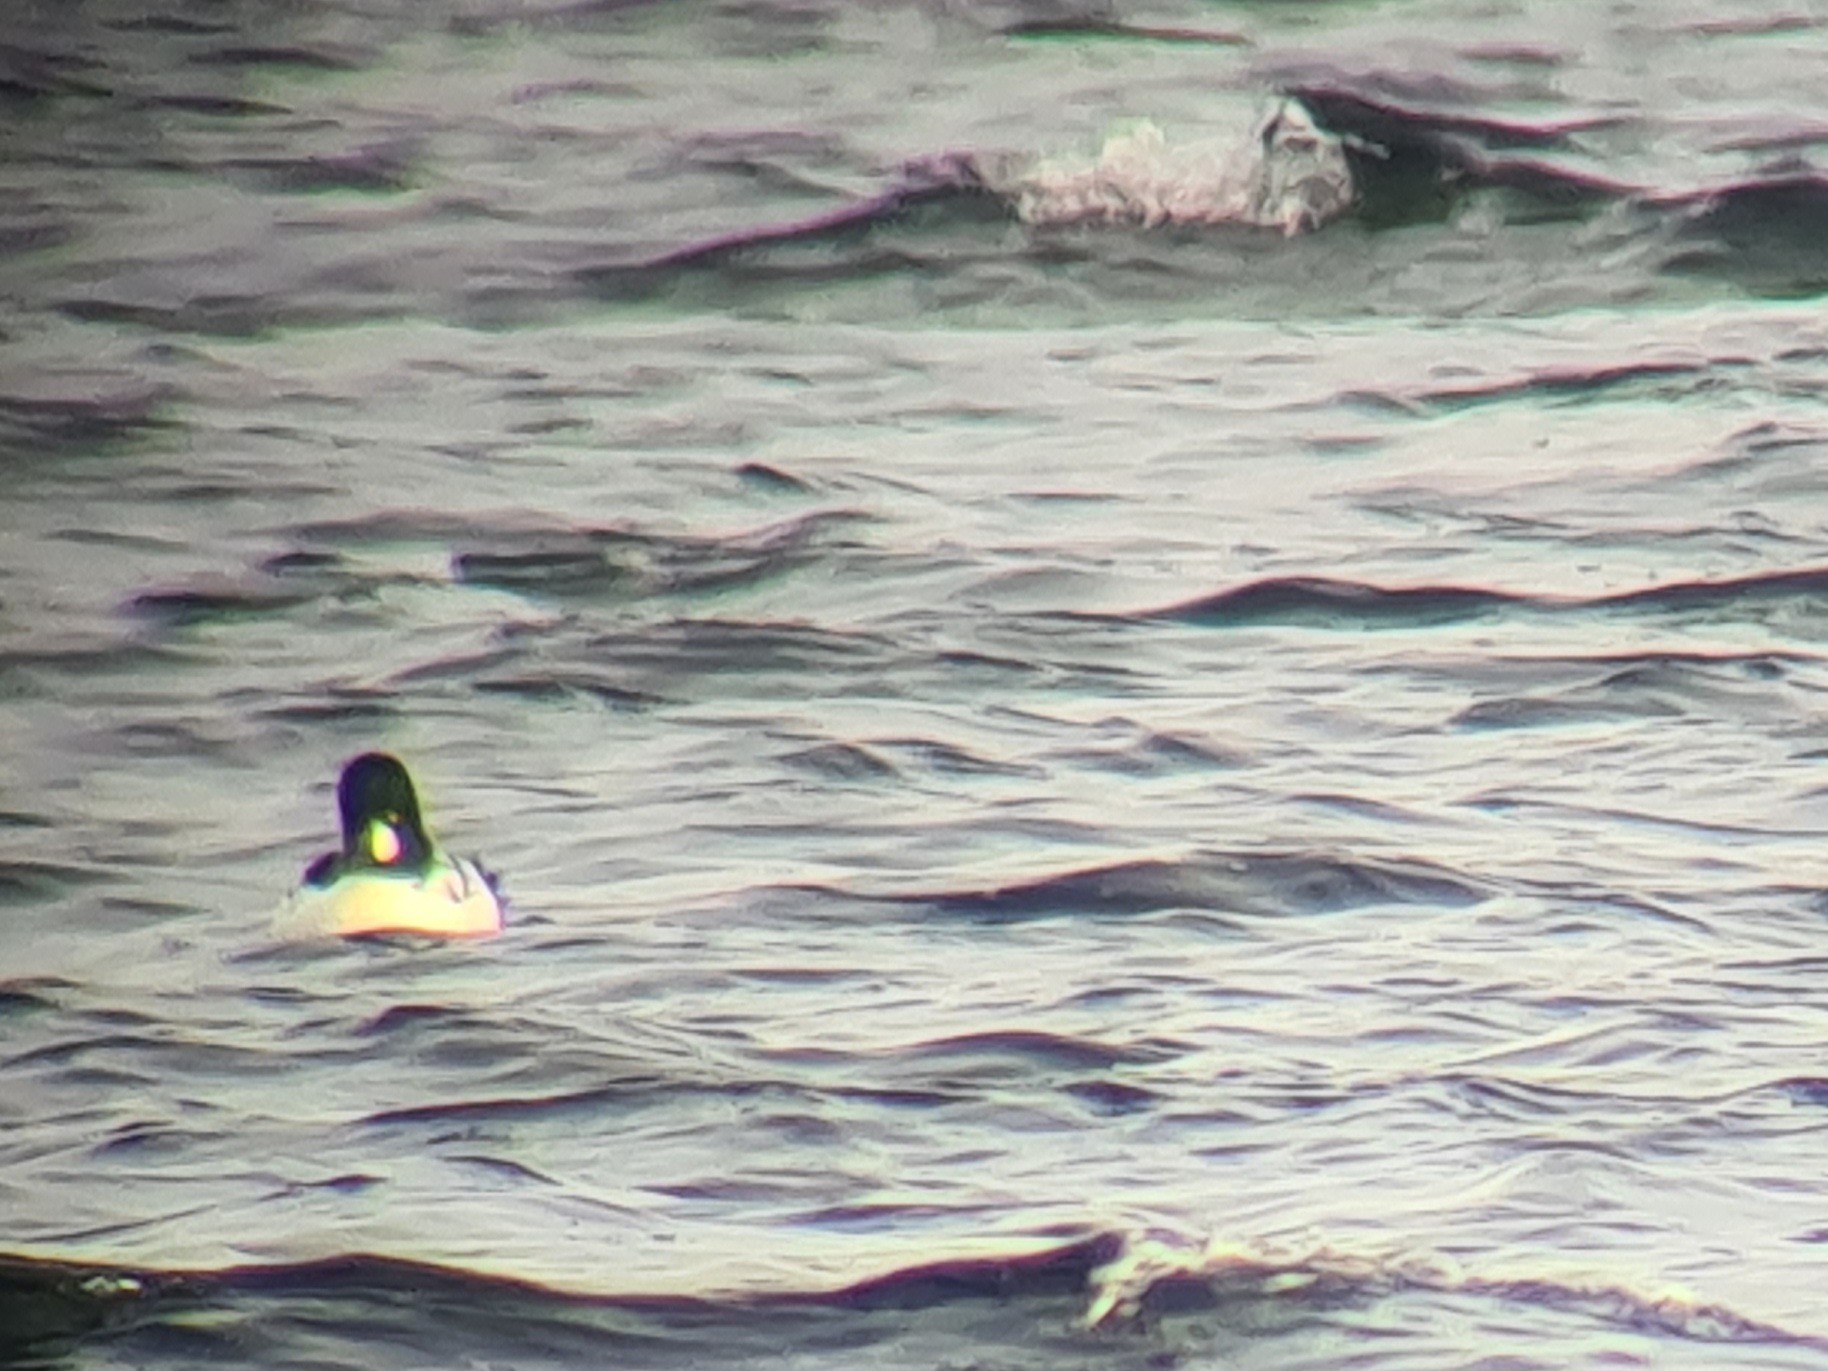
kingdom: Animalia
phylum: Chordata
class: Aves
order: Anseriformes
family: Anatidae
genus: Bucephala
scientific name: Bucephala clangula
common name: Hvinand
